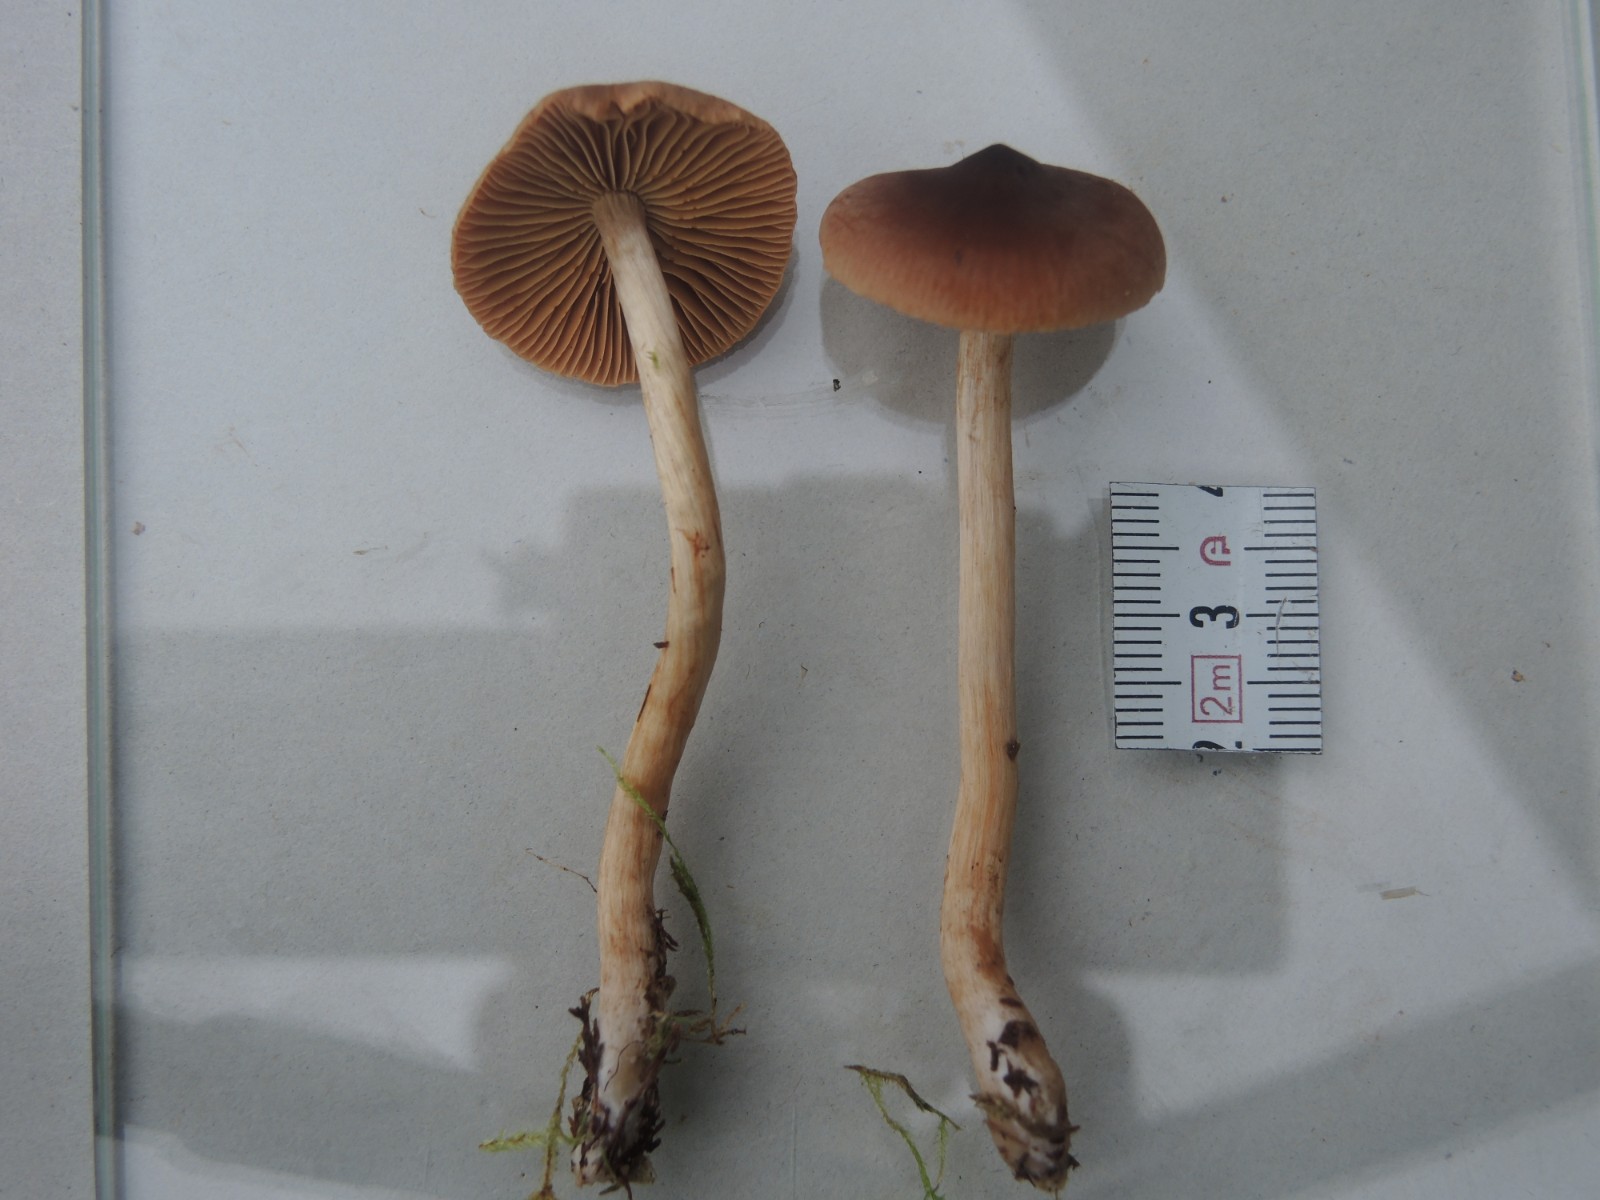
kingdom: Fungi
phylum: Basidiomycota
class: Agaricomycetes
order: Agaricales
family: Cortinariaceae
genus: Cortinarius
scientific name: Cortinarius fulvescentoideus
